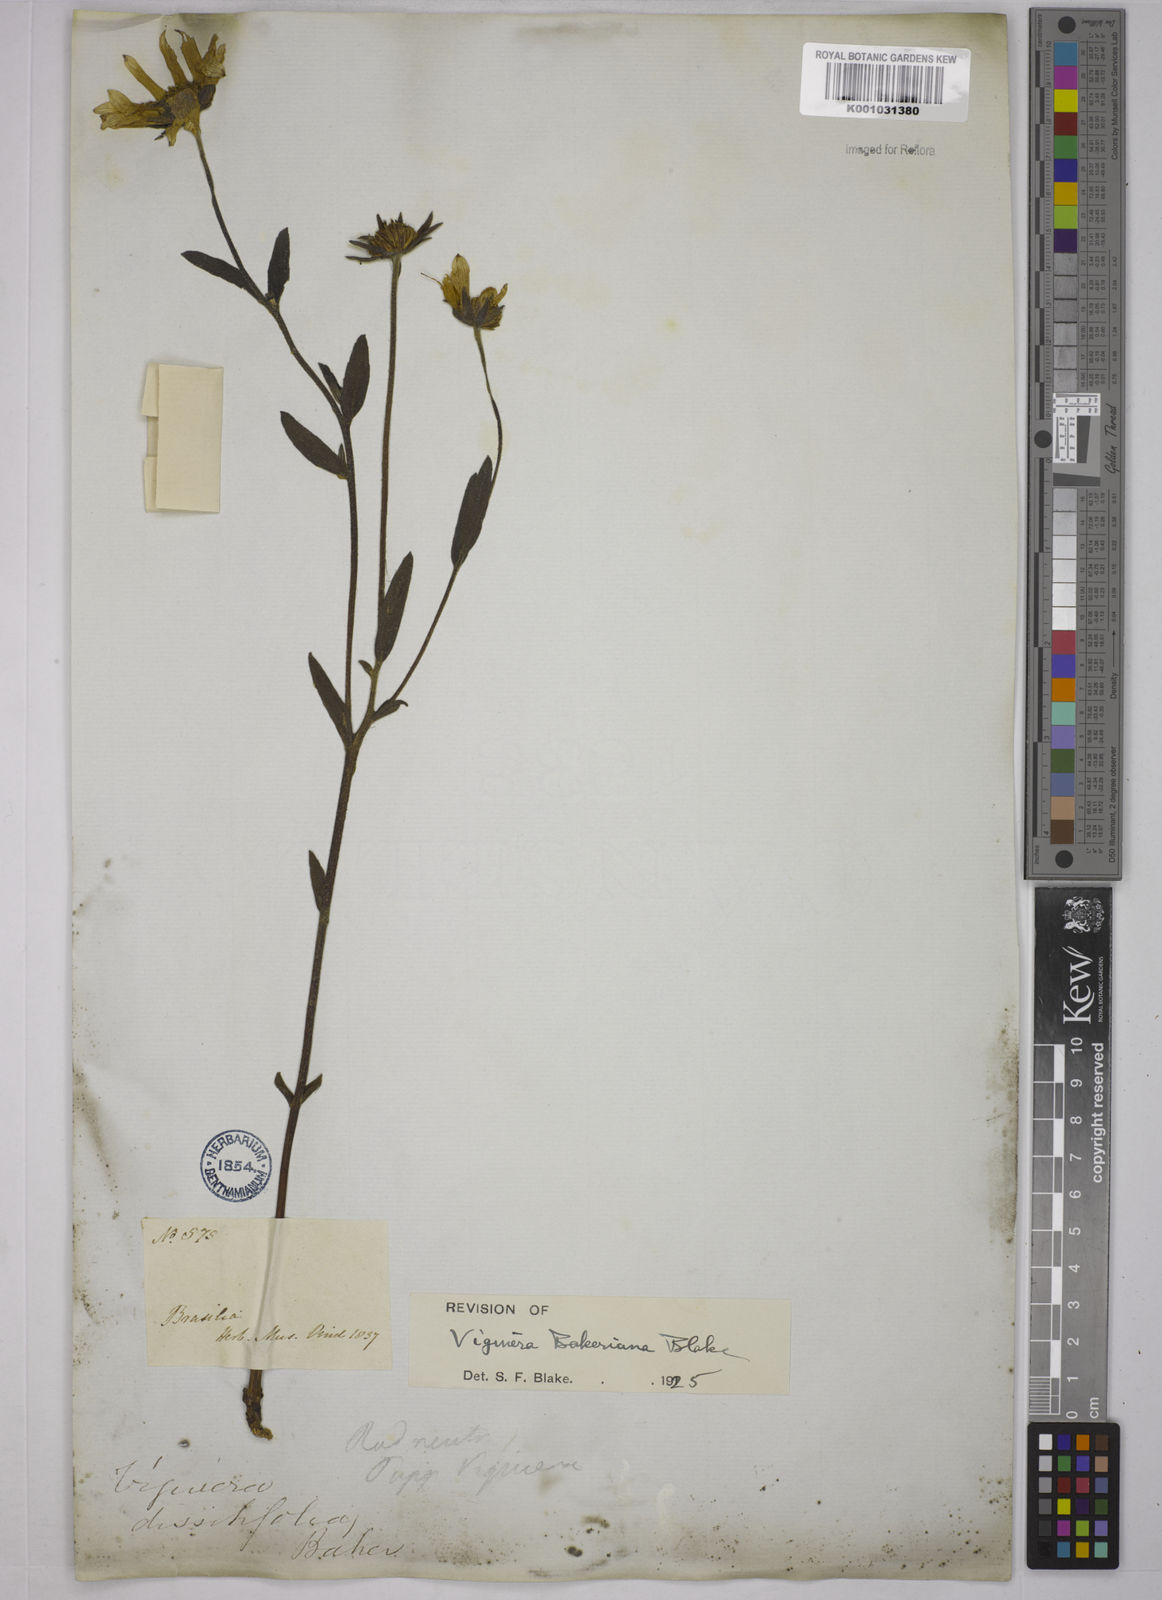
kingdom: Plantae
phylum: Tracheophyta
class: Magnoliopsida
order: Asterales
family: Asteraceae
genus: Aldama
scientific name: Aldama bakeriana
